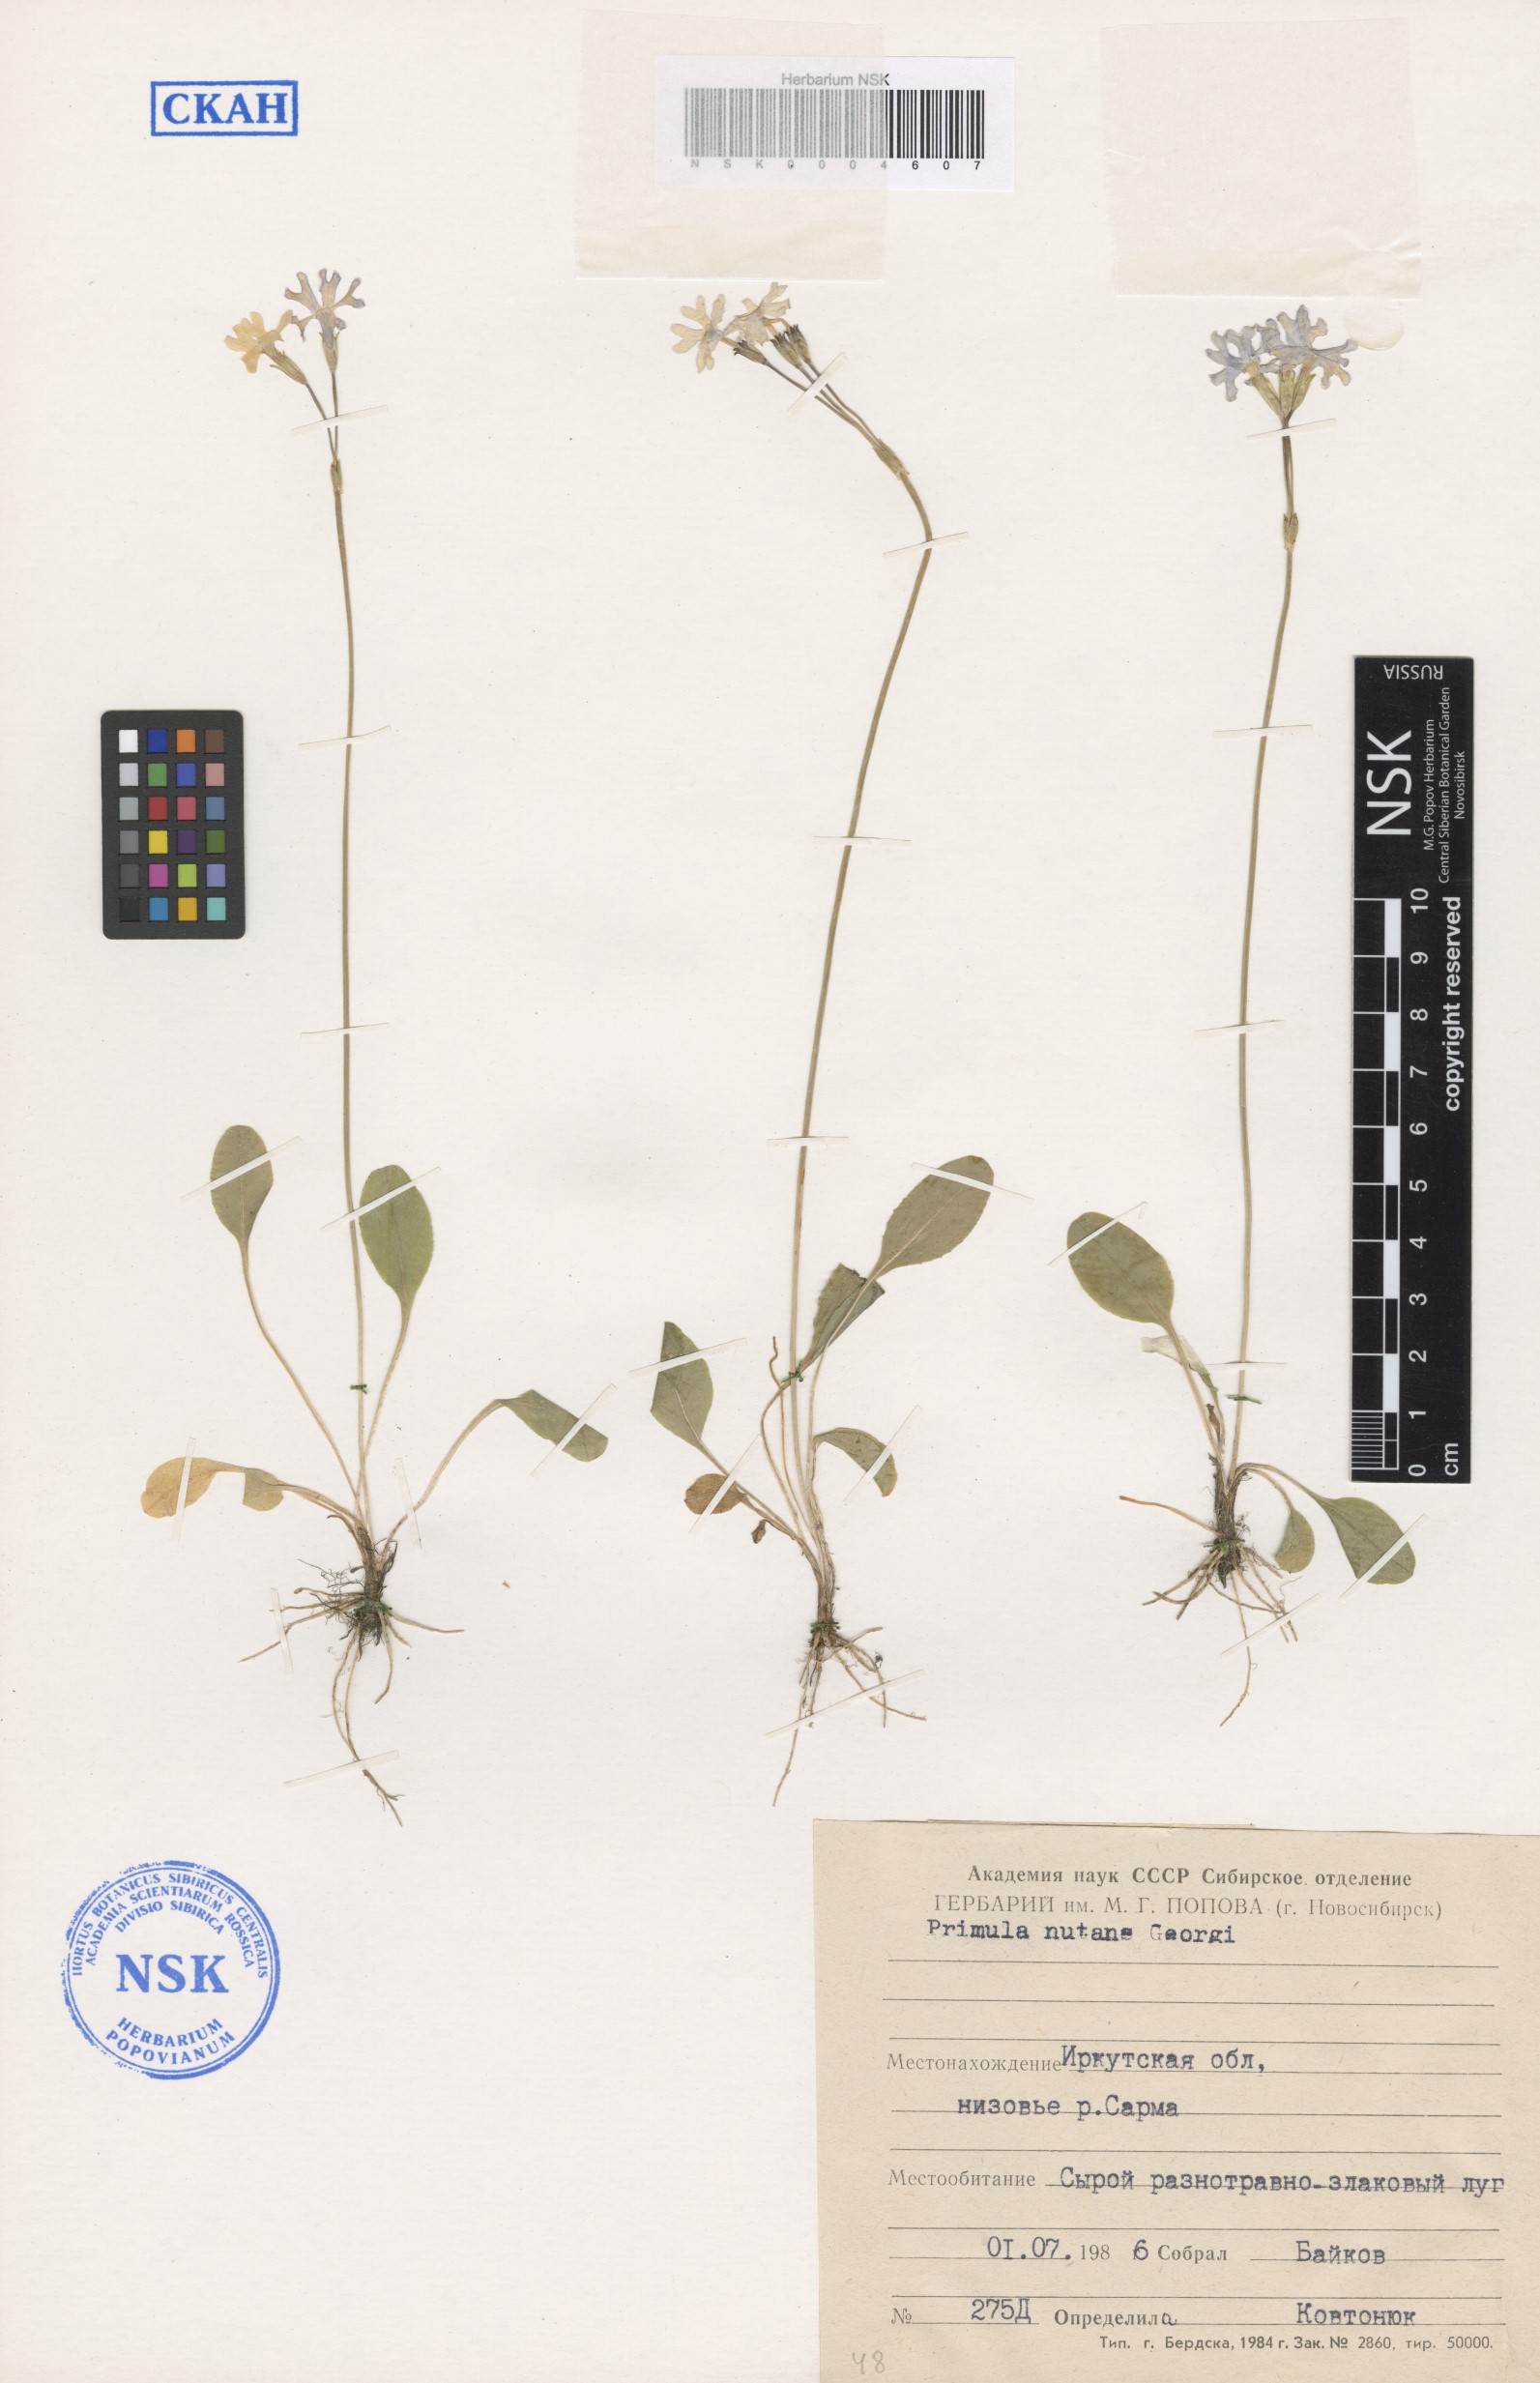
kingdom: Plantae
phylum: Tracheophyta
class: Magnoliopsida
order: Ericales
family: Primulaceae
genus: Primula
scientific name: Primula nutans
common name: Siberian primrose
